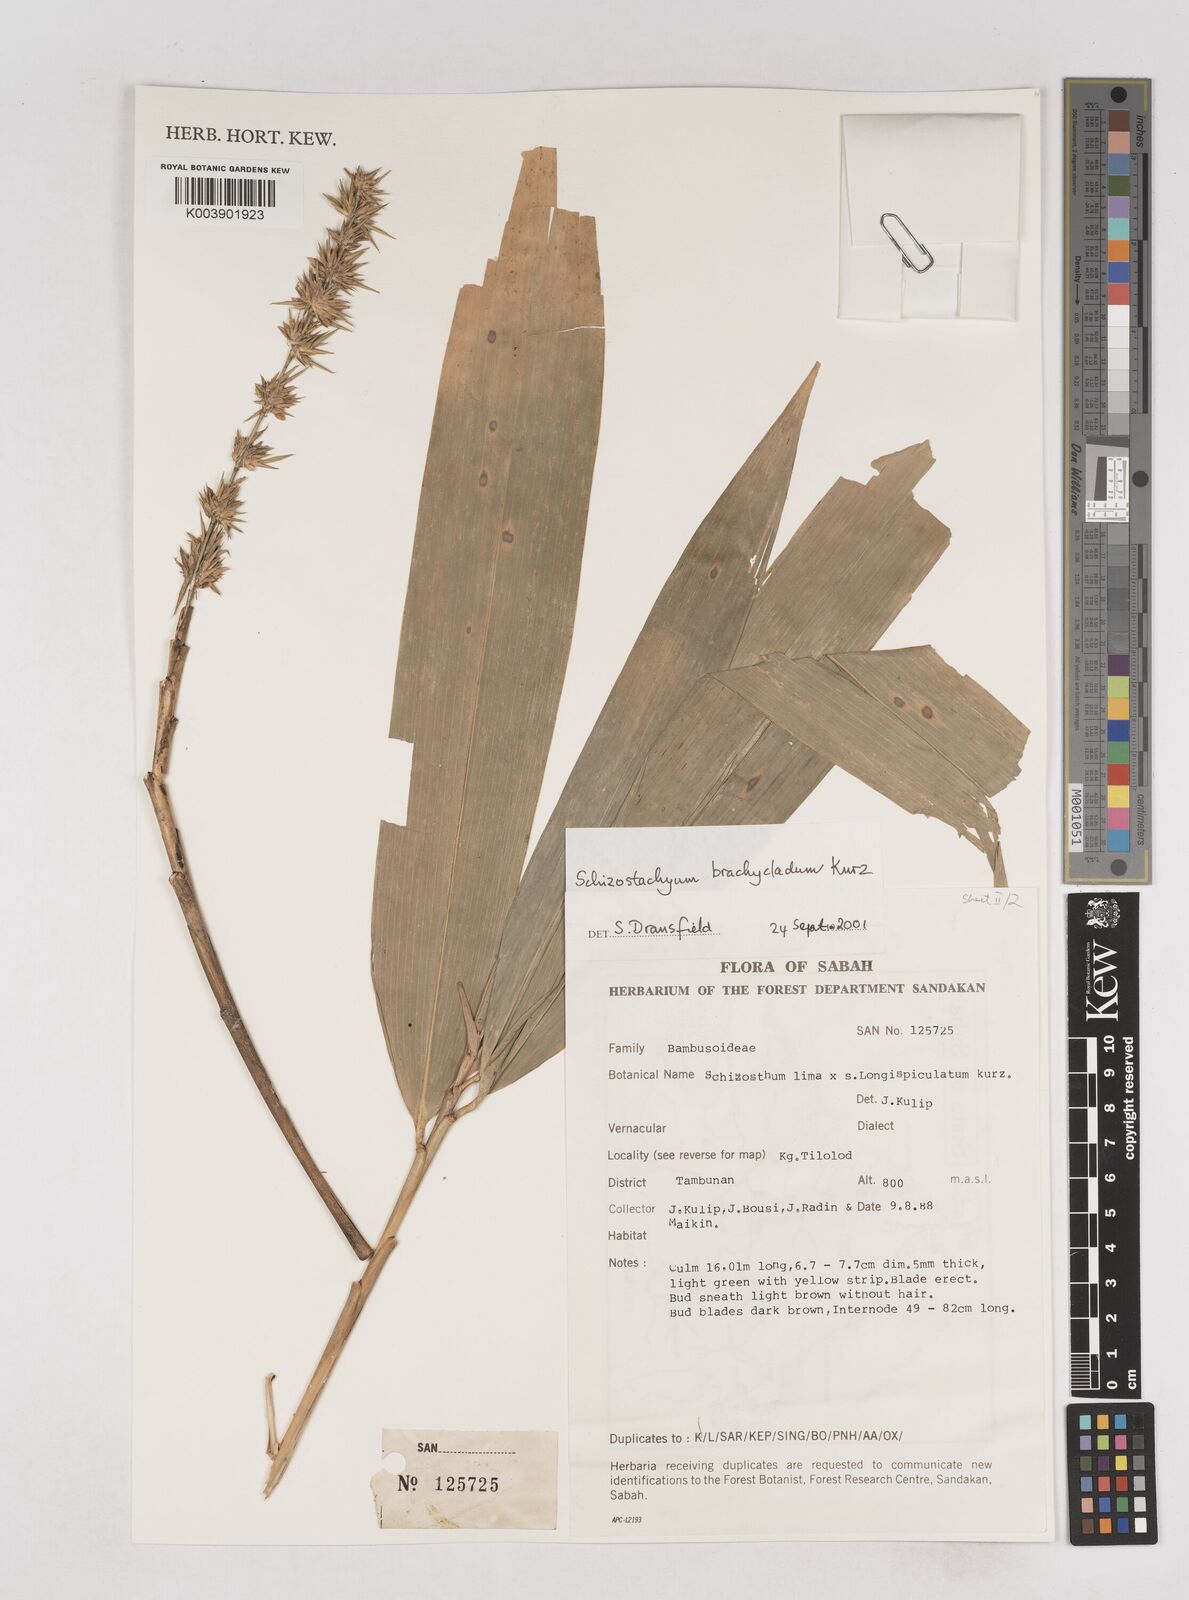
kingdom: Plantae
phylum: Tracheophyta
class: Liliopsida
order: Poales
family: Poaceae
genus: Schizostachyum
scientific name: Schizostachyum brachycladum
